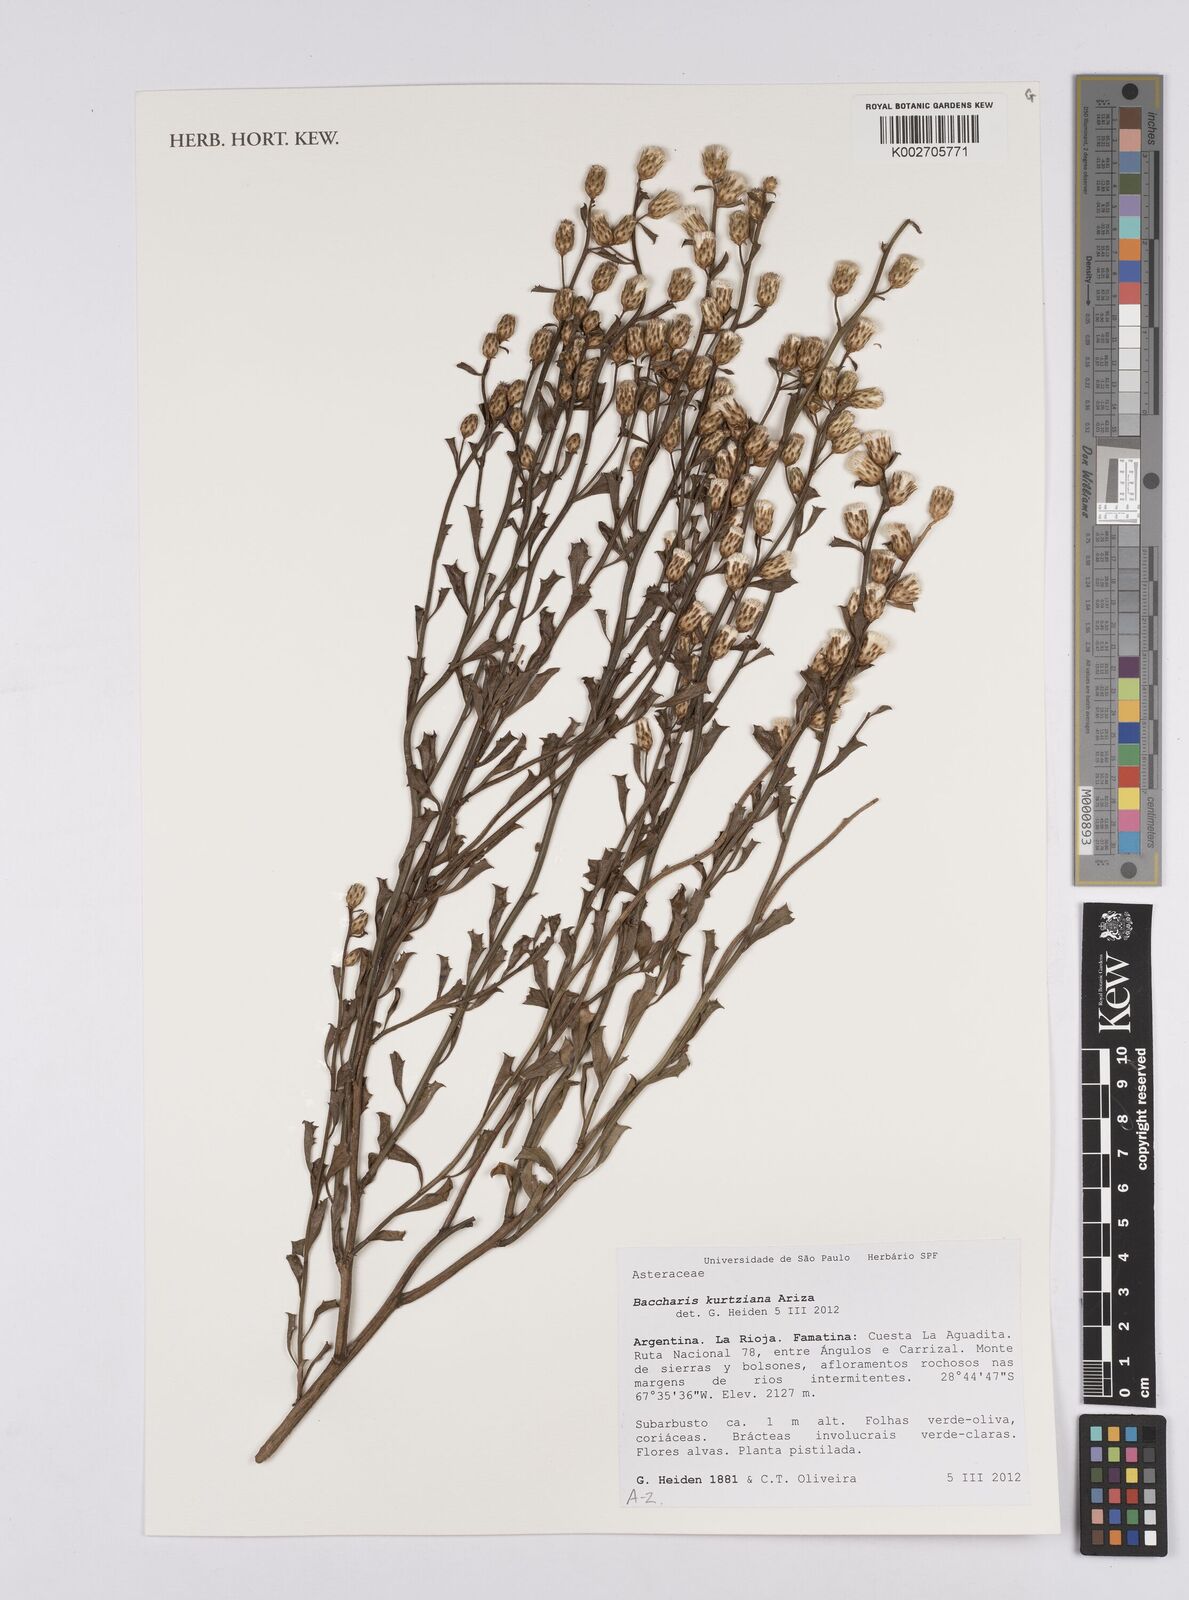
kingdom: Plantae
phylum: Tracheophyta
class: Magnoliopsida
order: Asterales
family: Asteraceae
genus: Baccharis
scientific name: Baccharis kurtziana
